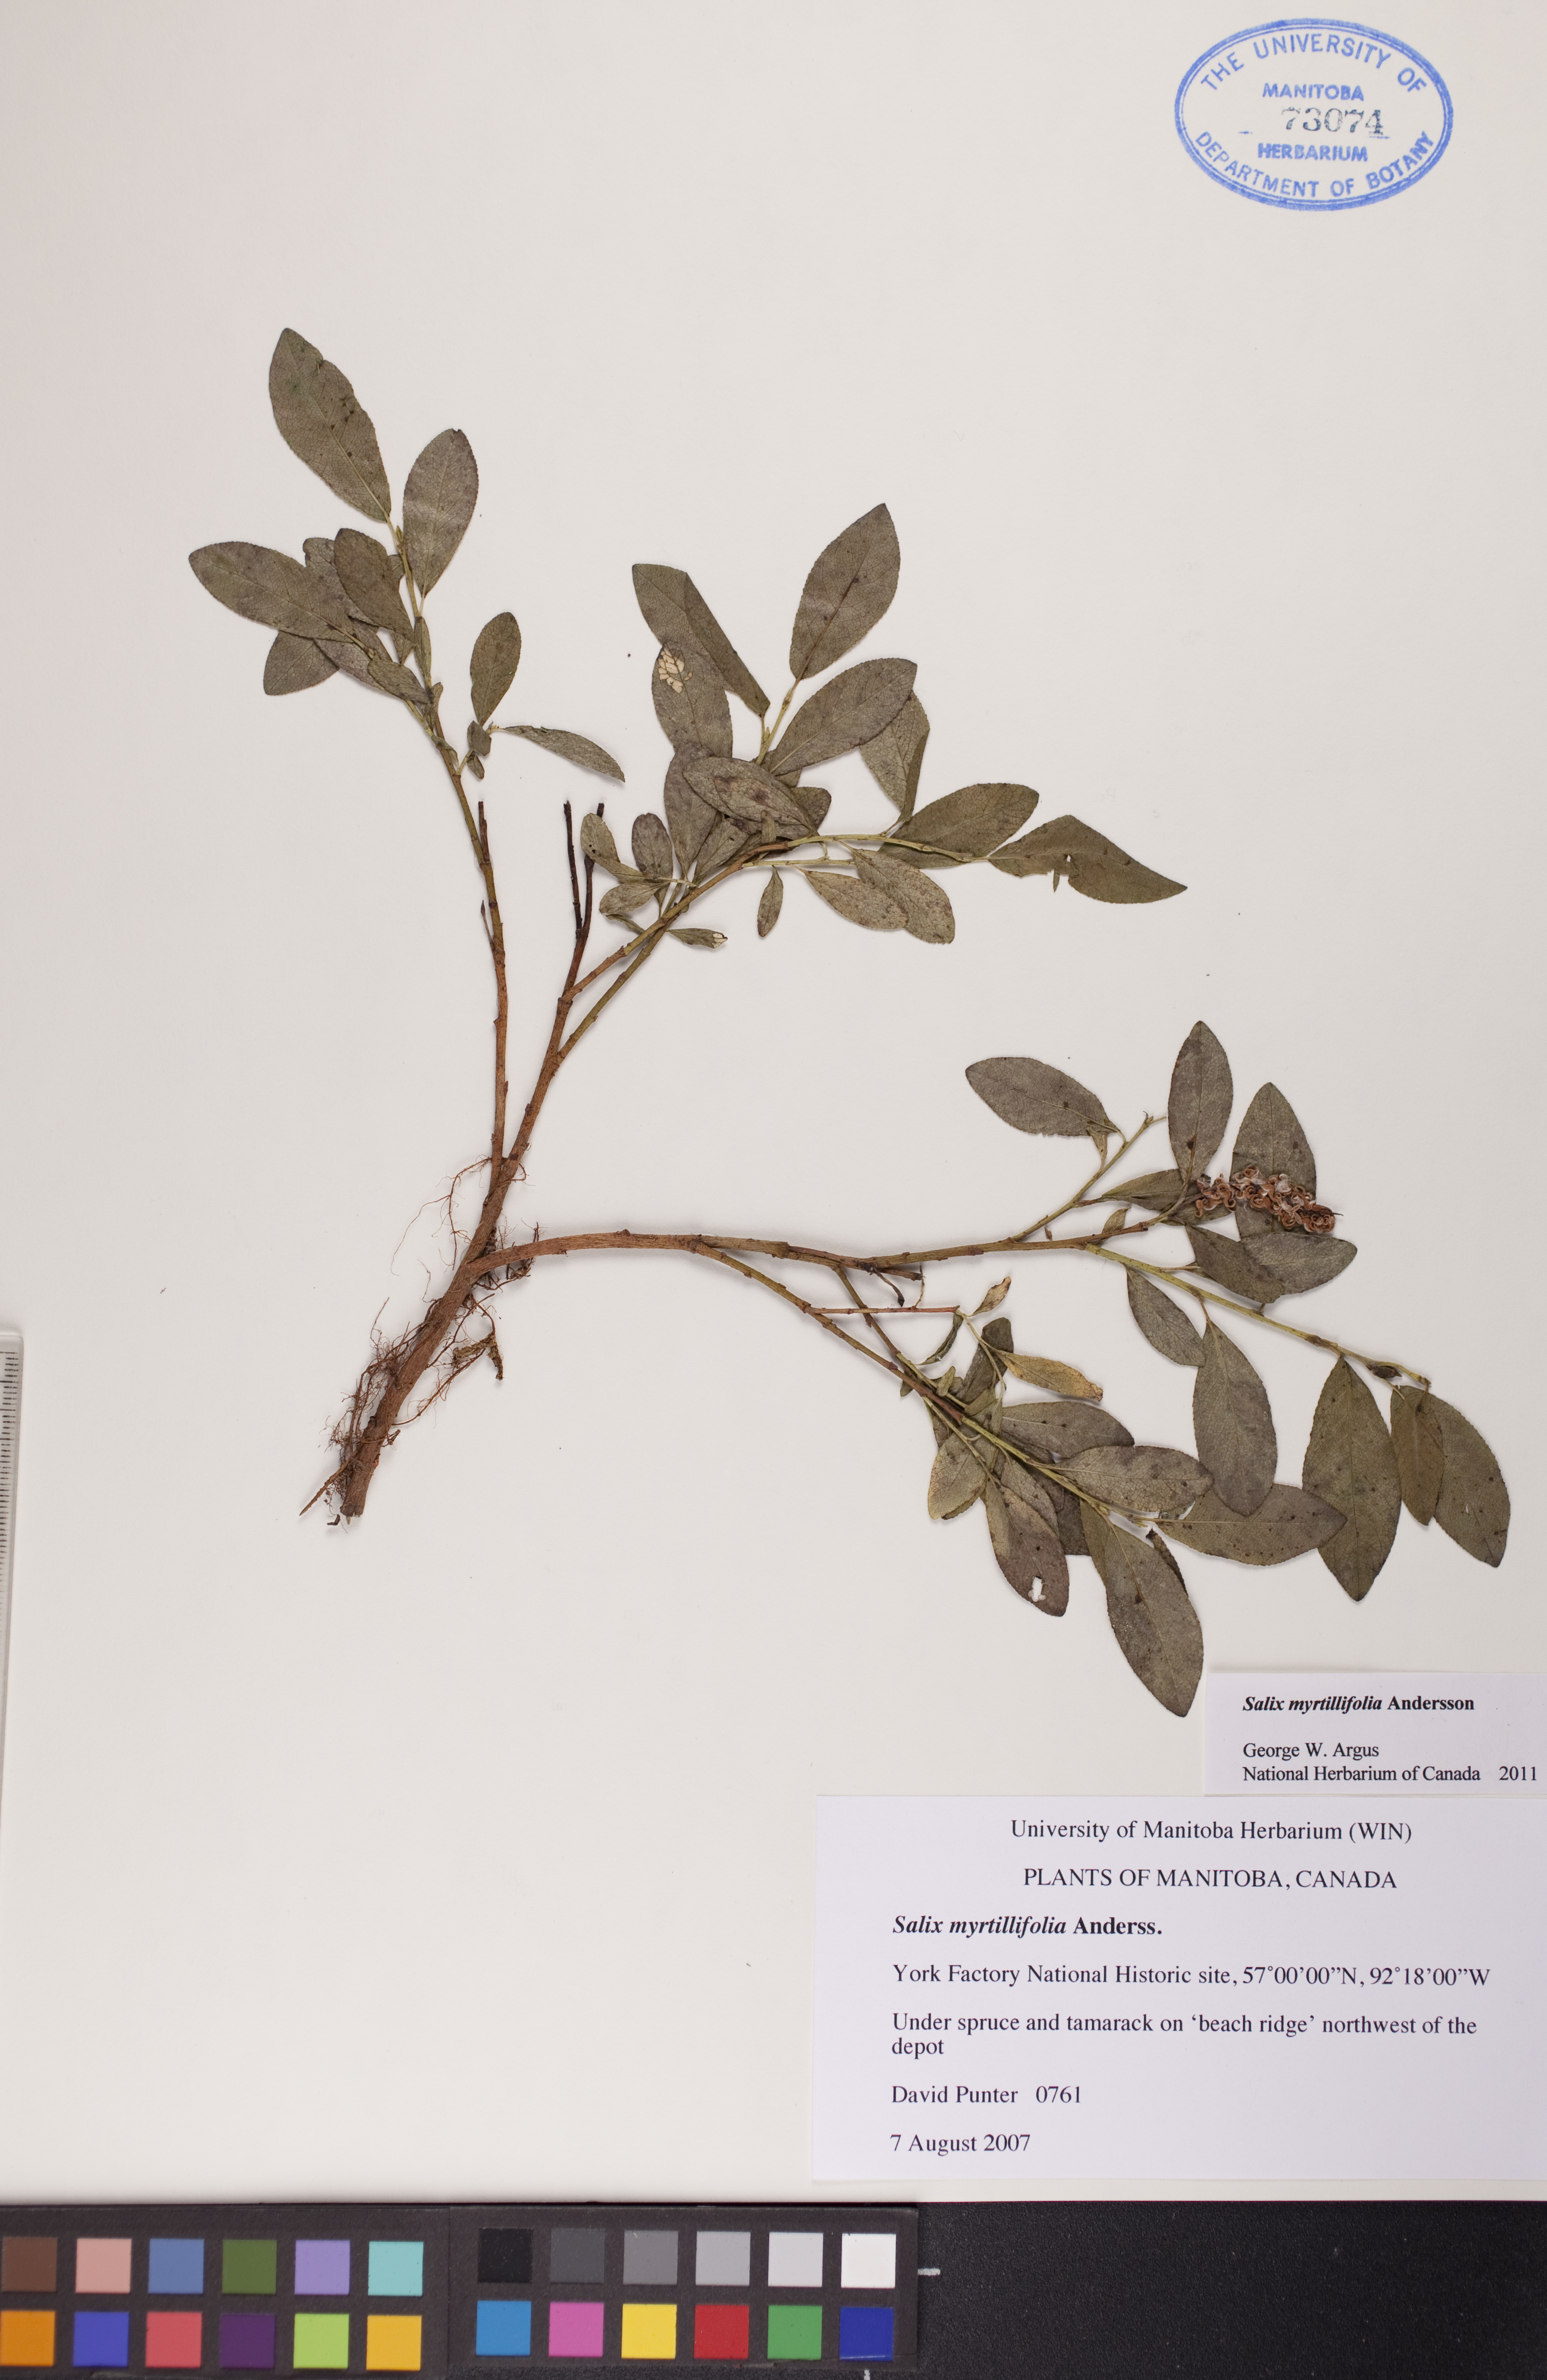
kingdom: Plantae
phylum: Tracheophyta
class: Magnoliopsida
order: Malpighiales
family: Salicaceae
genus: Salix
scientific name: Salix myrtillifolia
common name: Bilberry willow
